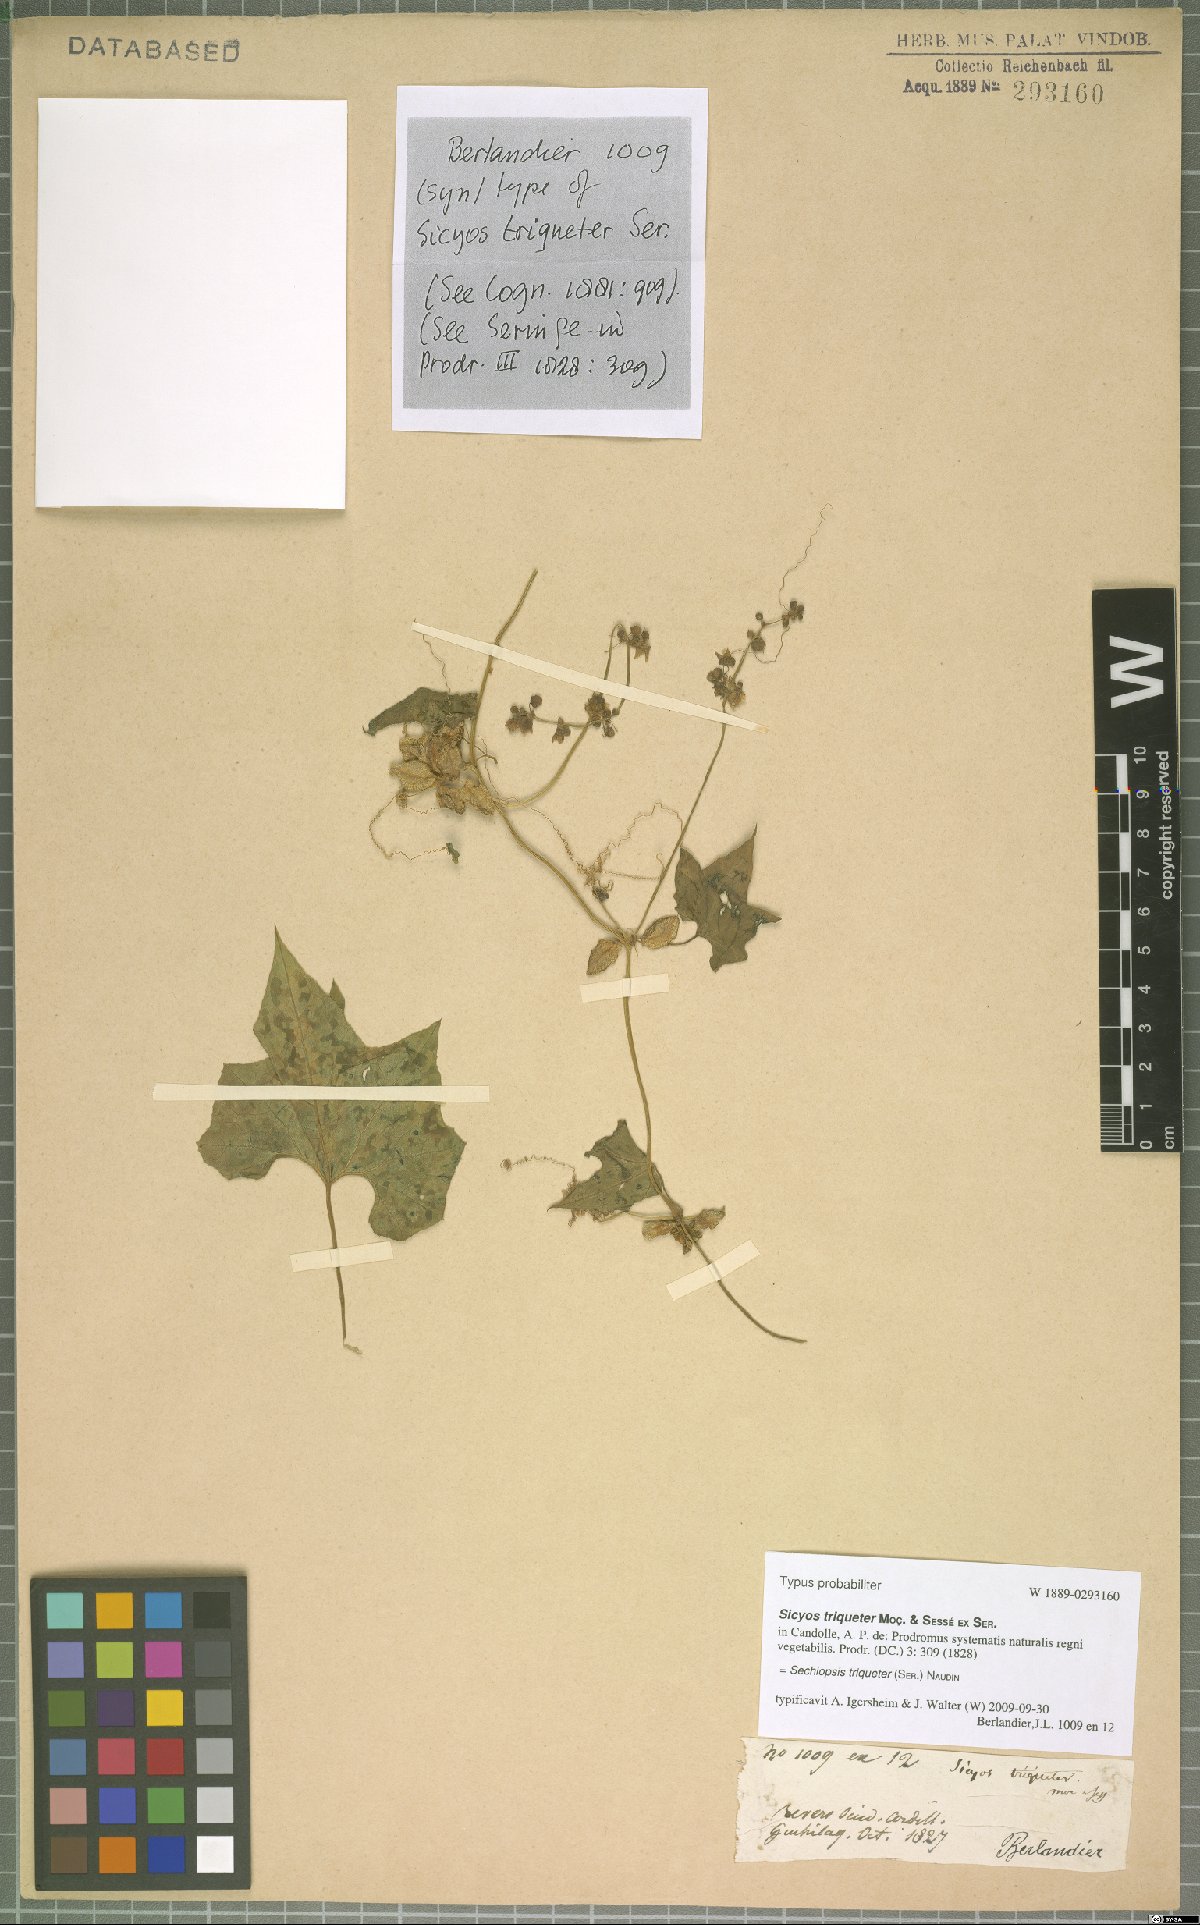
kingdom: Plantae
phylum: Tracheophyta
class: Magnoliopsida
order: Cucurbitales
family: Cucurbitaceae
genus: Sechiopsis
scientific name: Sechiopsis triqueter
